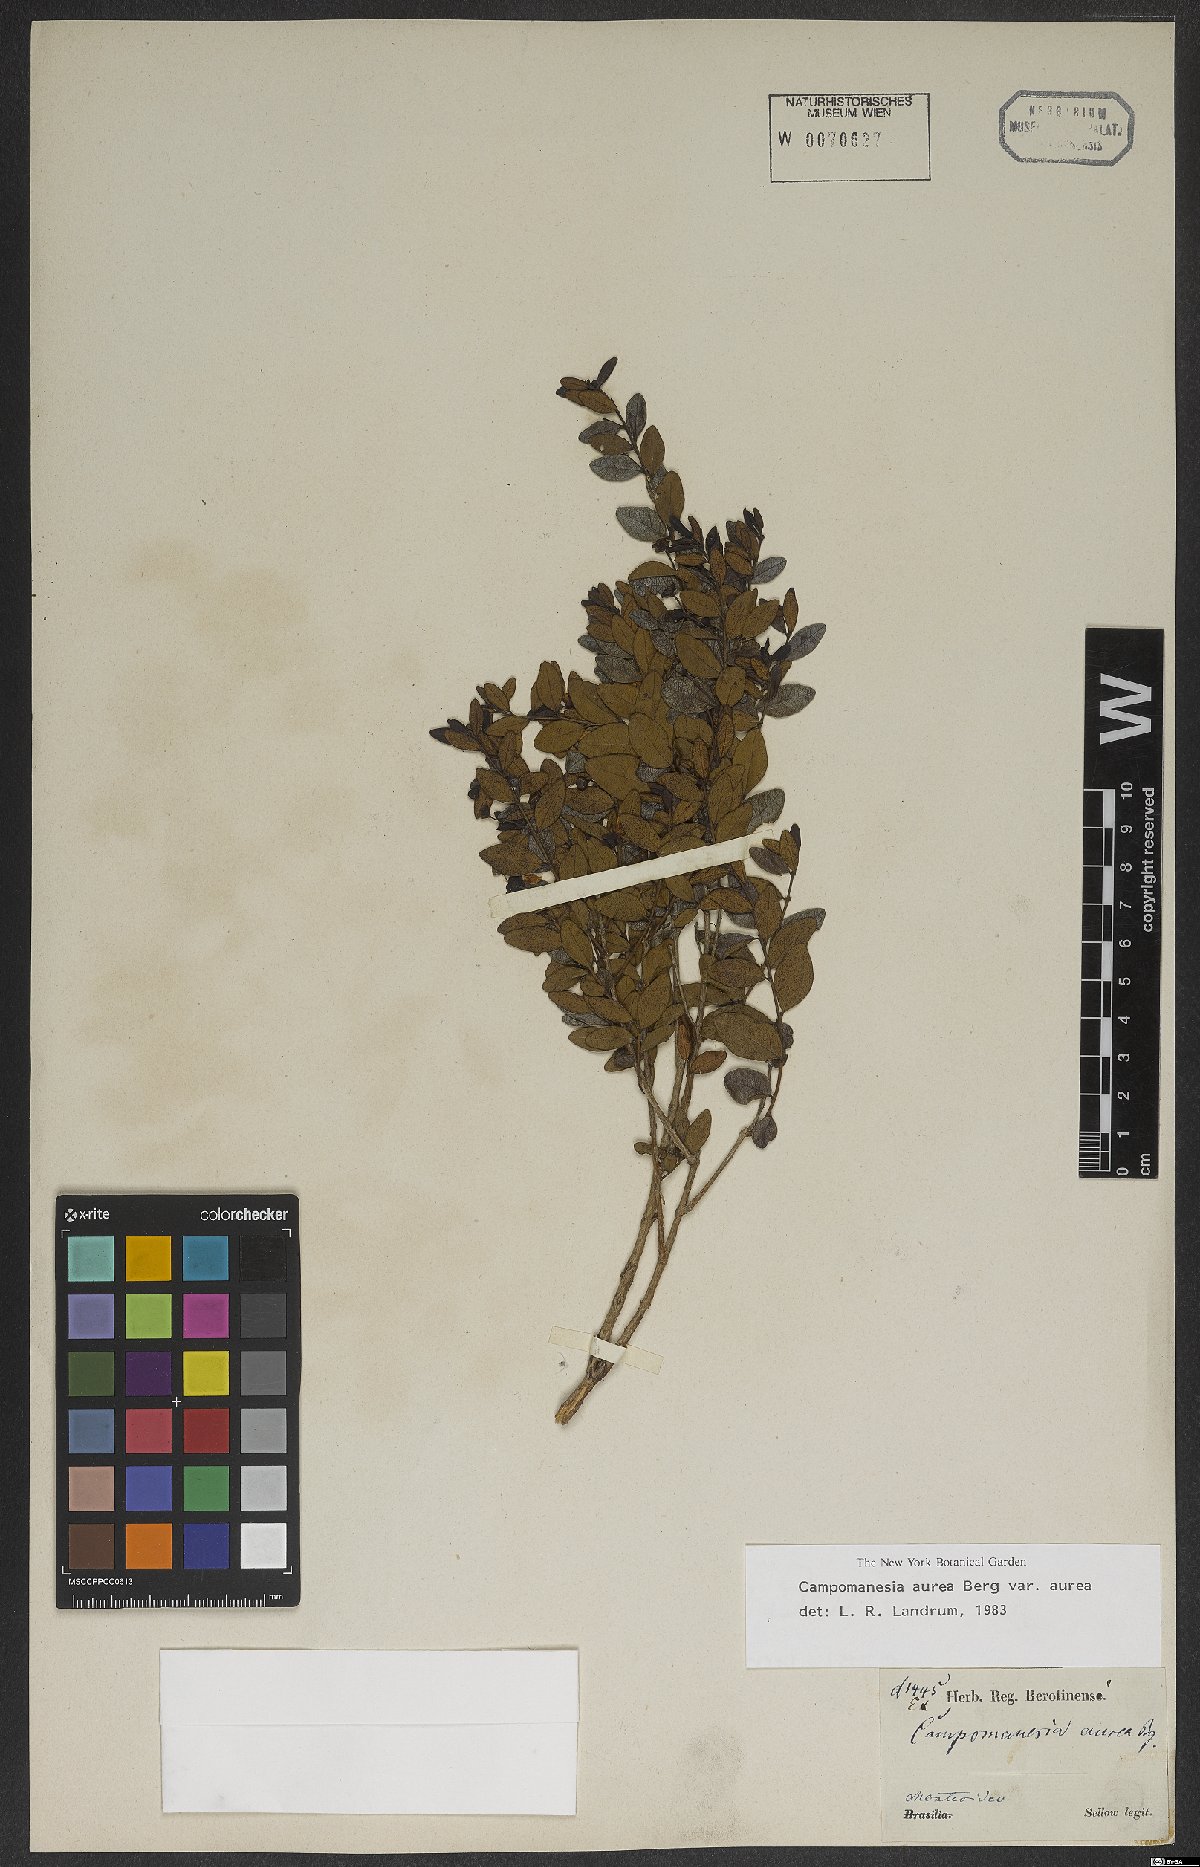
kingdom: Plantae
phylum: Tracheophyta
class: Magnoliopsida
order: Myrtales
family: Myrtaceae
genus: Campomanesia
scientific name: Campomanesia aurea
